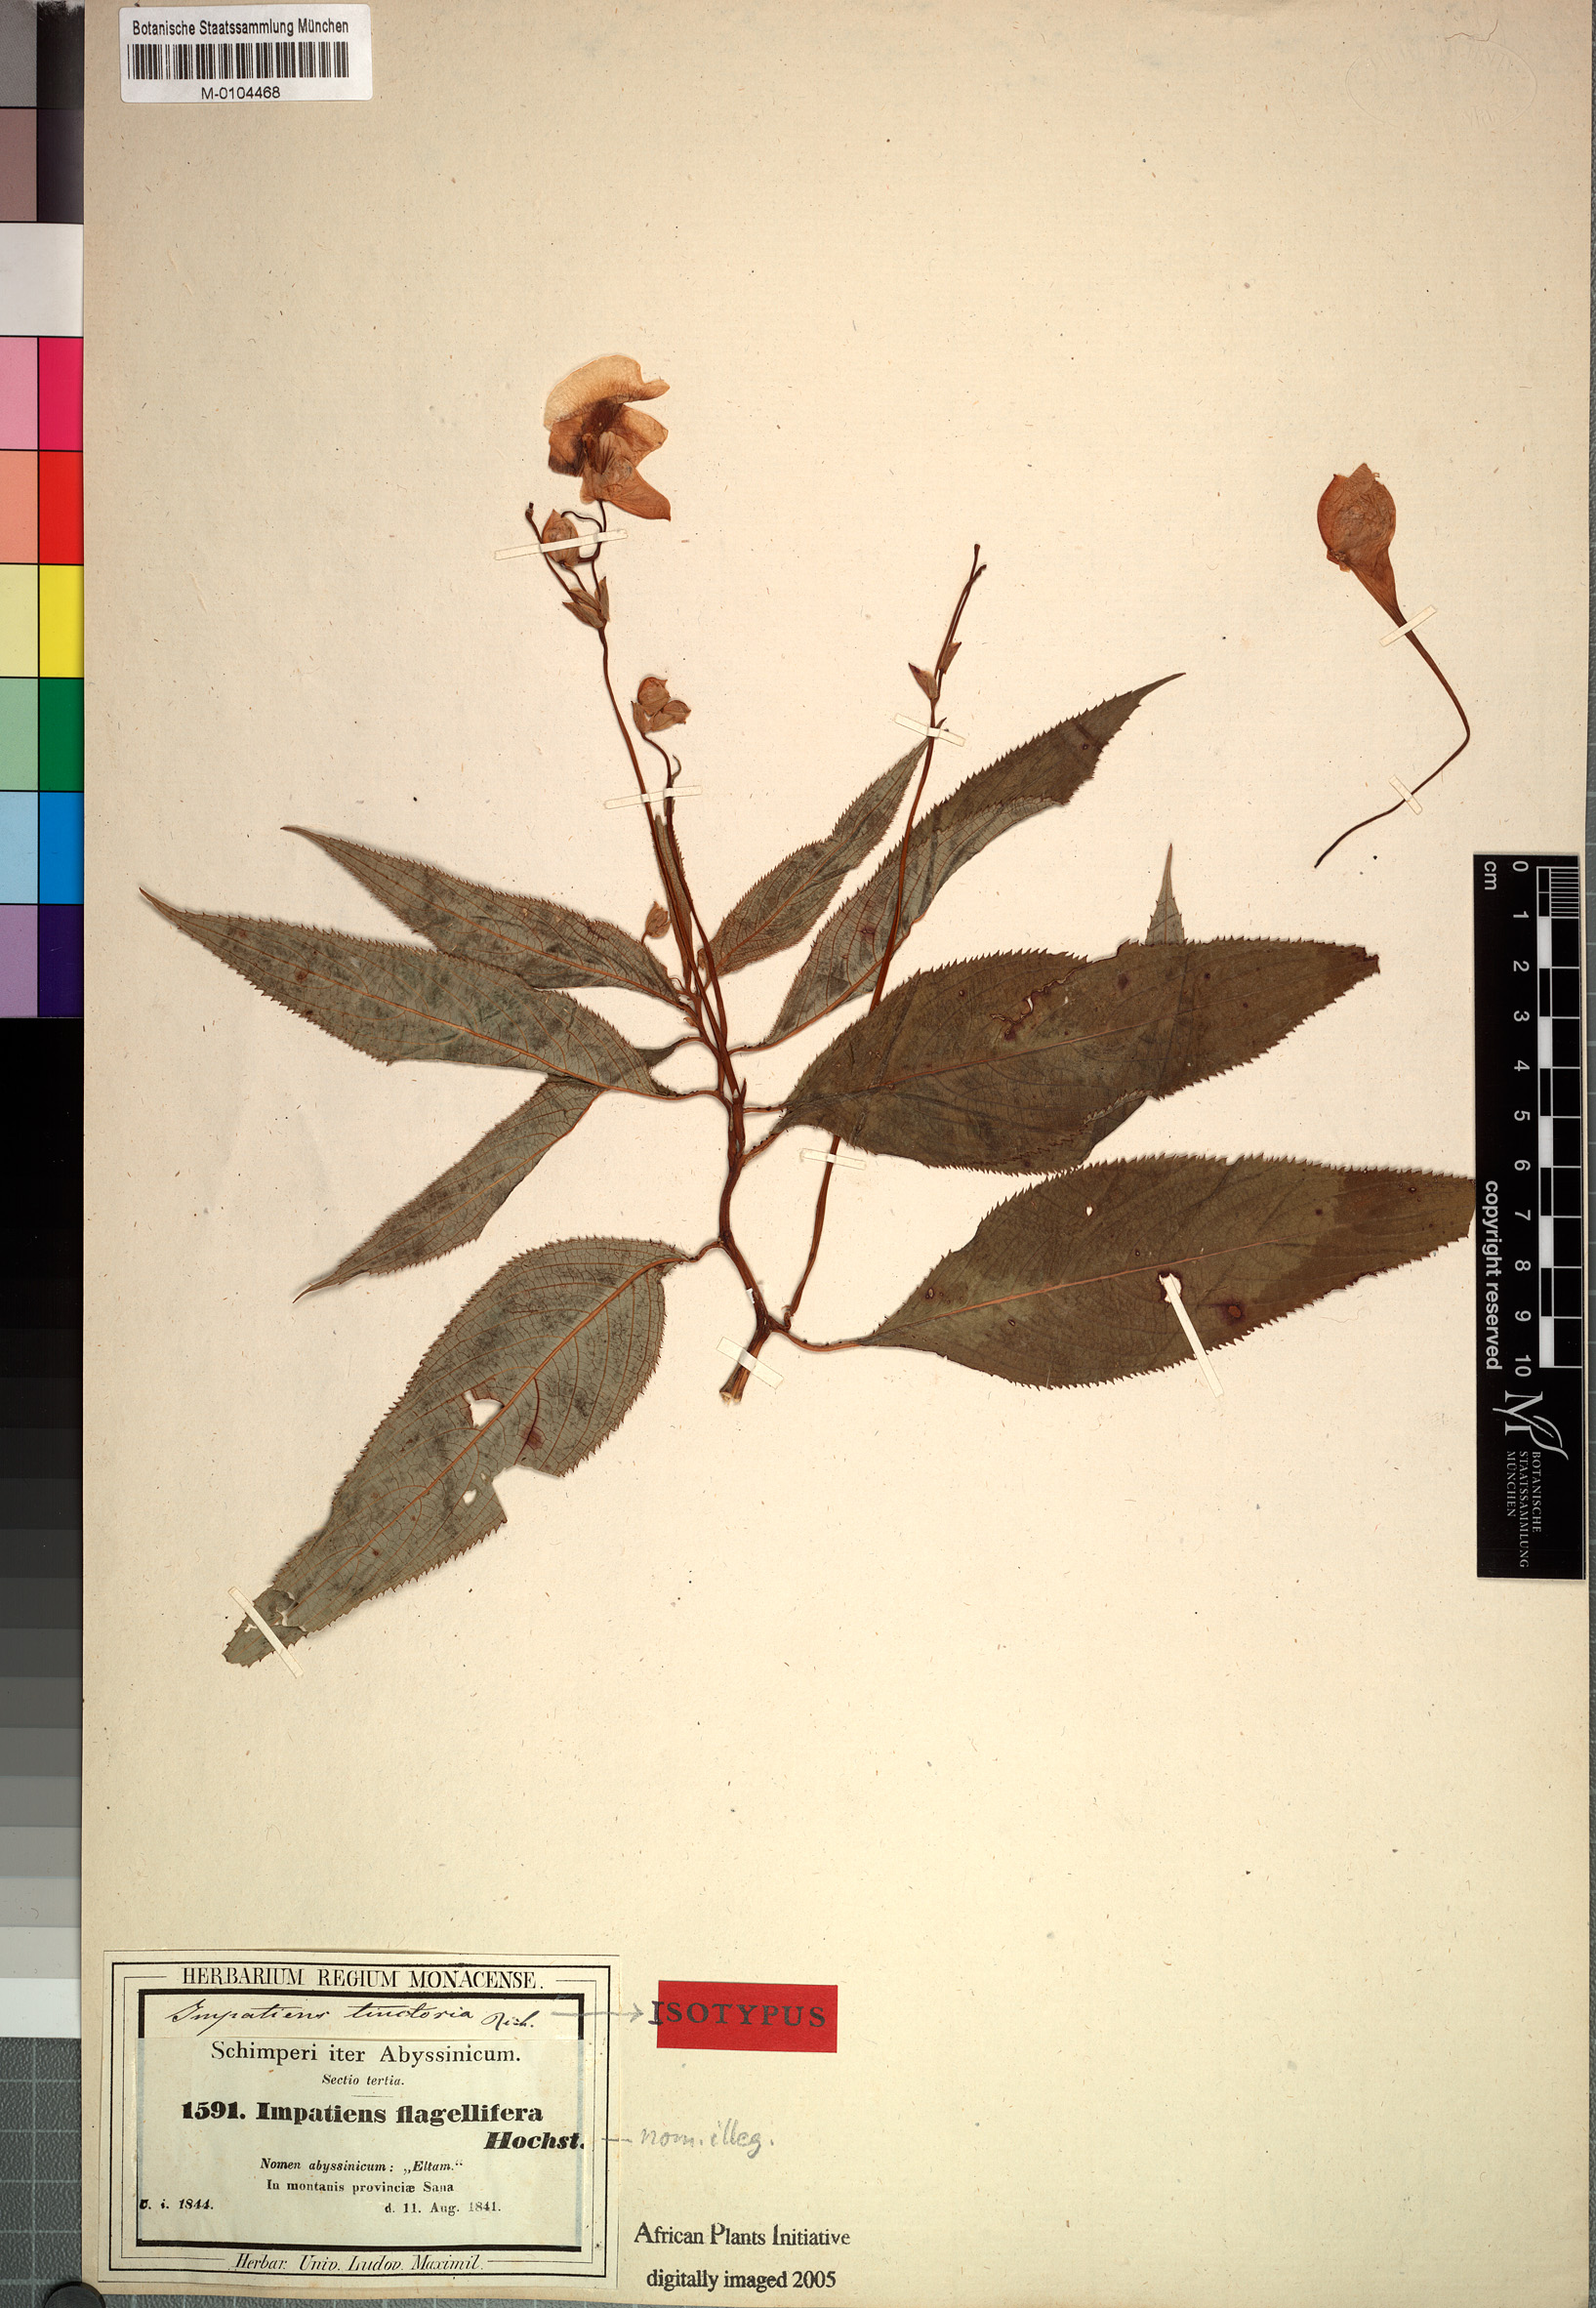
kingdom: Plantae
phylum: Tracheophyta
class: Magnoliopsida
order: Ericales
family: Balsaminaceae
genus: Impatiens
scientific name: Impatiens tinctoria
